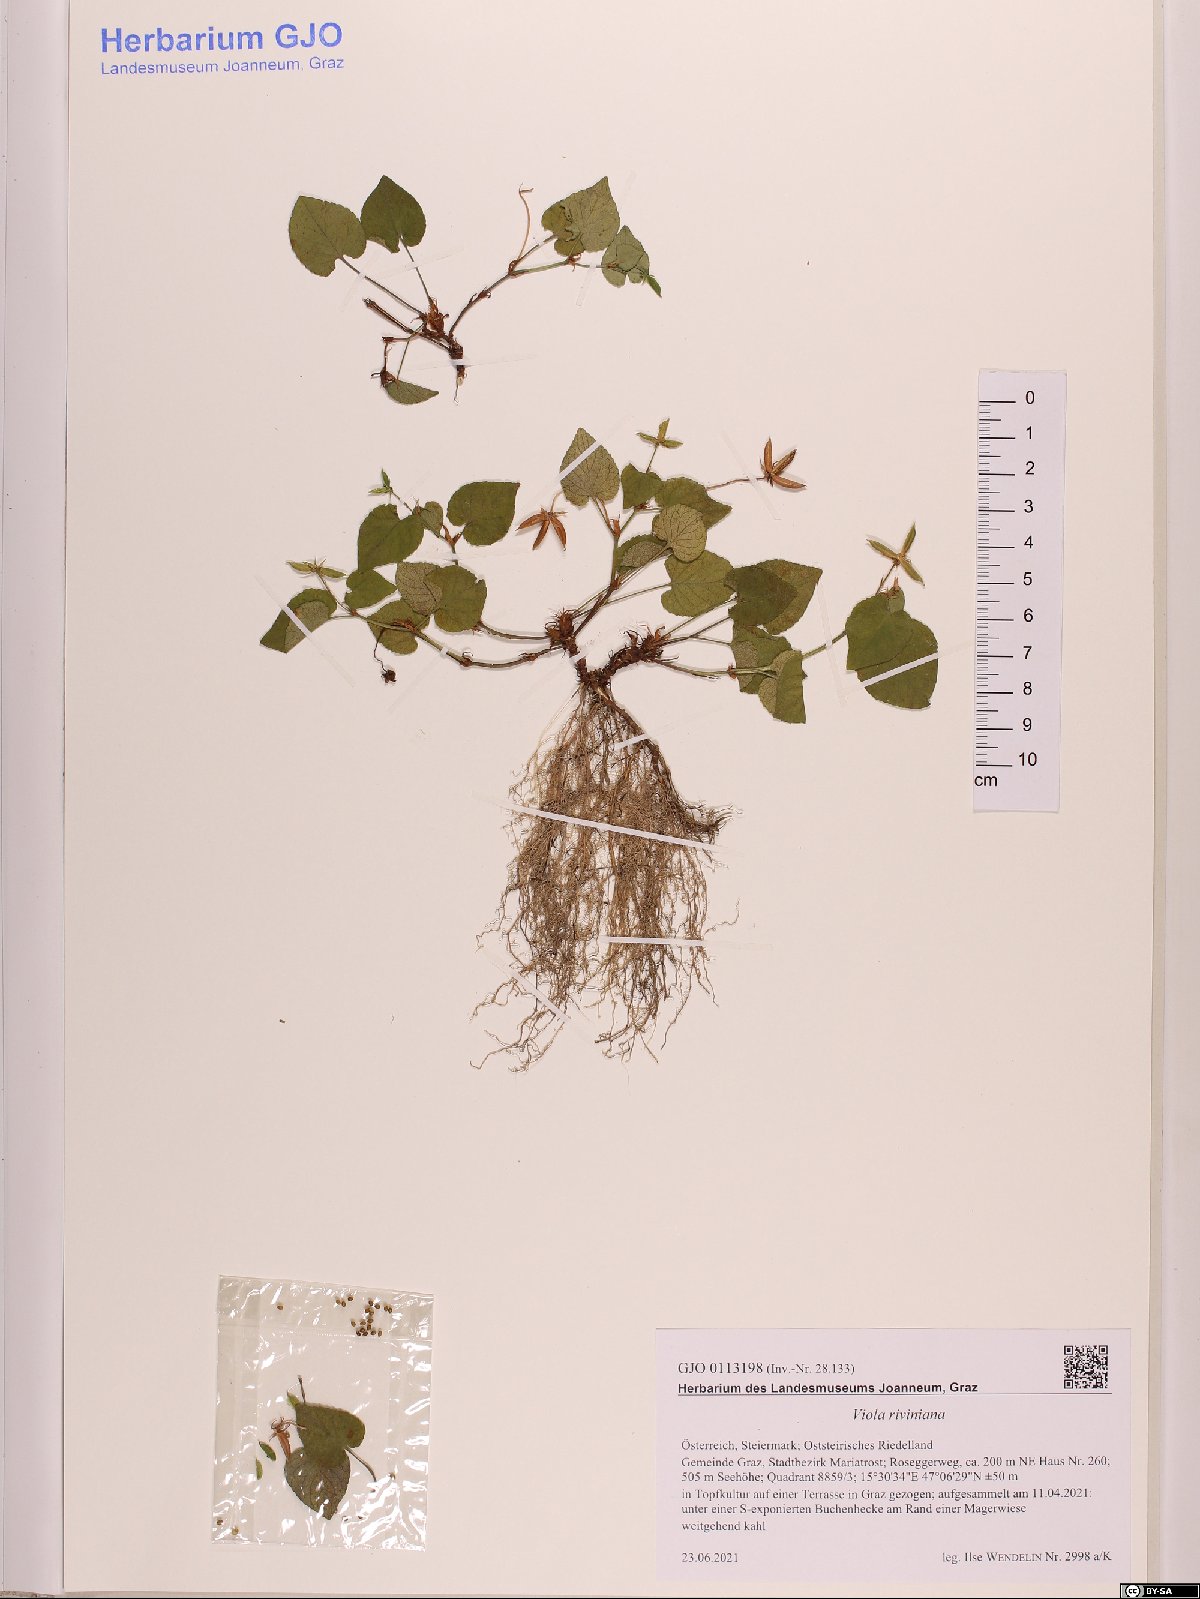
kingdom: Plantae
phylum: Tracheophyta
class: Magnoliopsida
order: Malpighiales
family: Violaceae
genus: Viola
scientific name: Viola riviniana
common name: Common dog-violet
